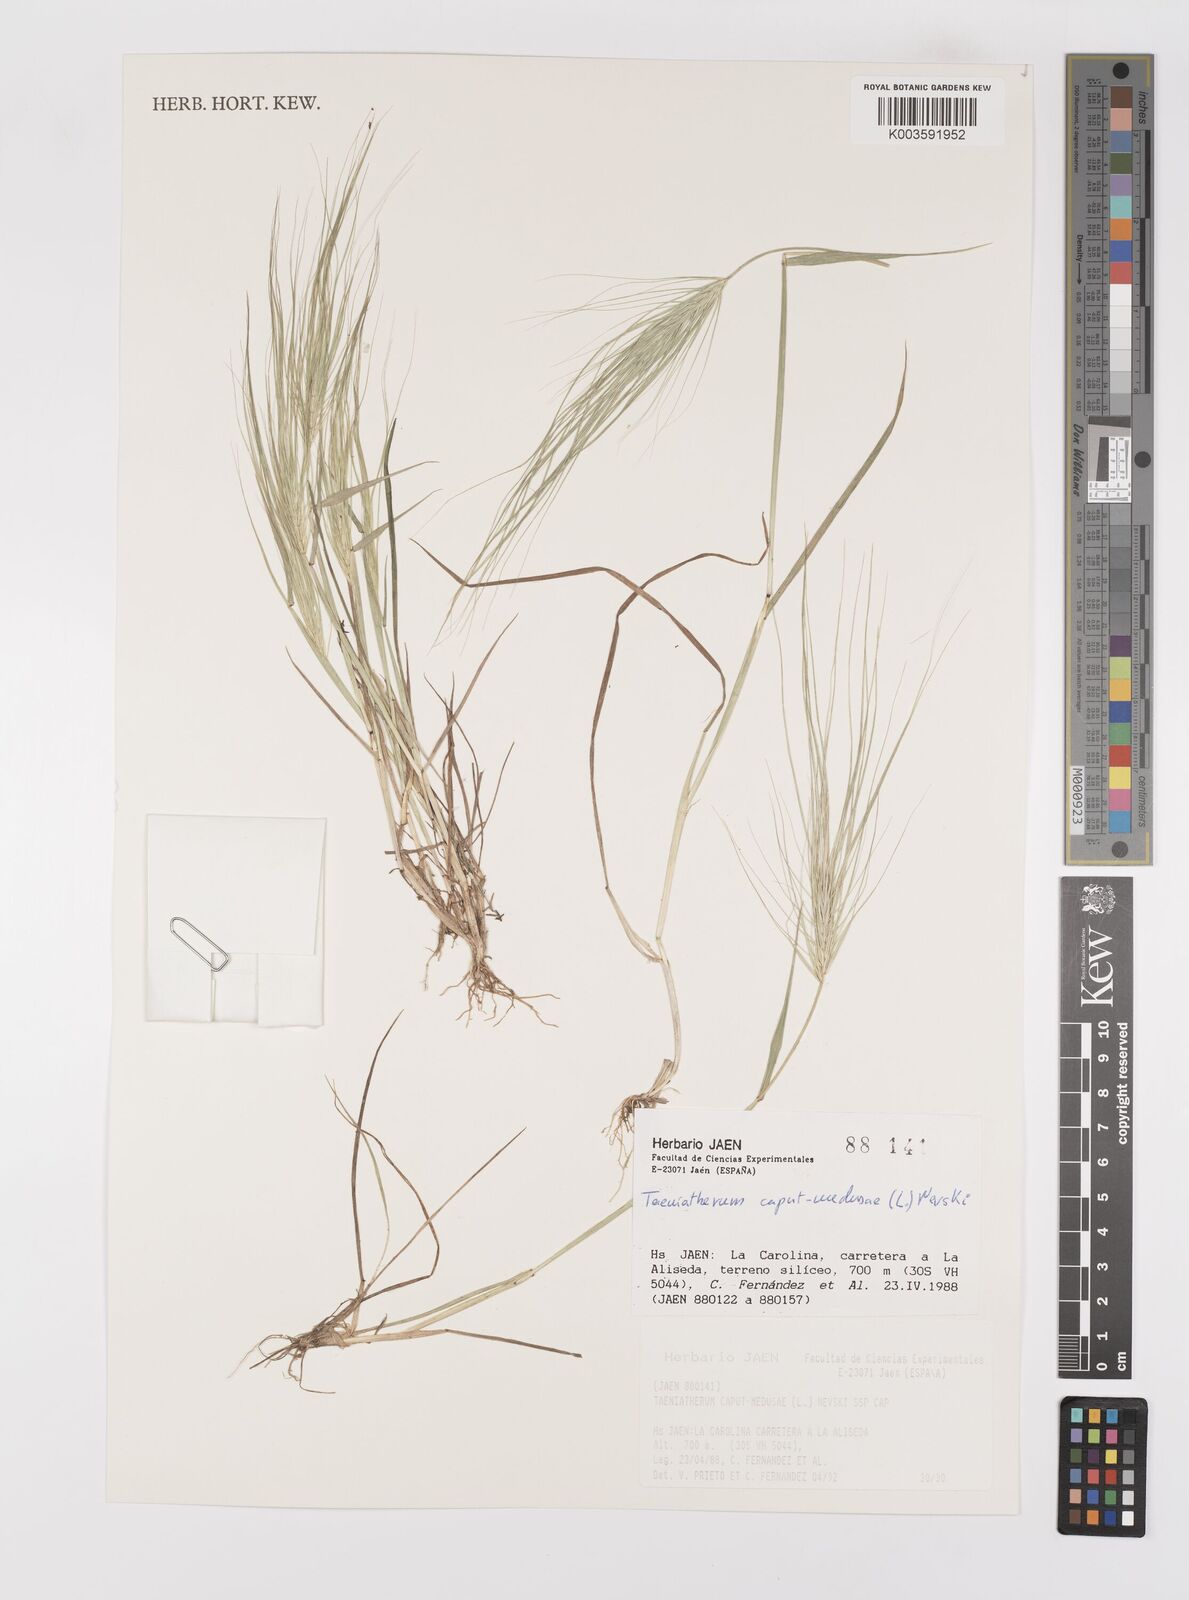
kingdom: Plantae
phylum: Tracheophyta
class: Liliopsida
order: Poales
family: Poaceae
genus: Taeniatherum
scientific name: Taeniatherum caput-medusae
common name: Medusahead
